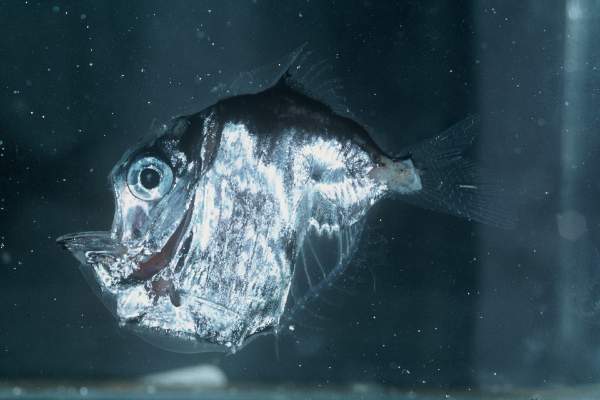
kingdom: Animalia
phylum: Chordata
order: Stomiiformes
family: Sternoptychidae
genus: Sternoptyx
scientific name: Sternoptyx diaphana
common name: Diaphanous hatchet fish
